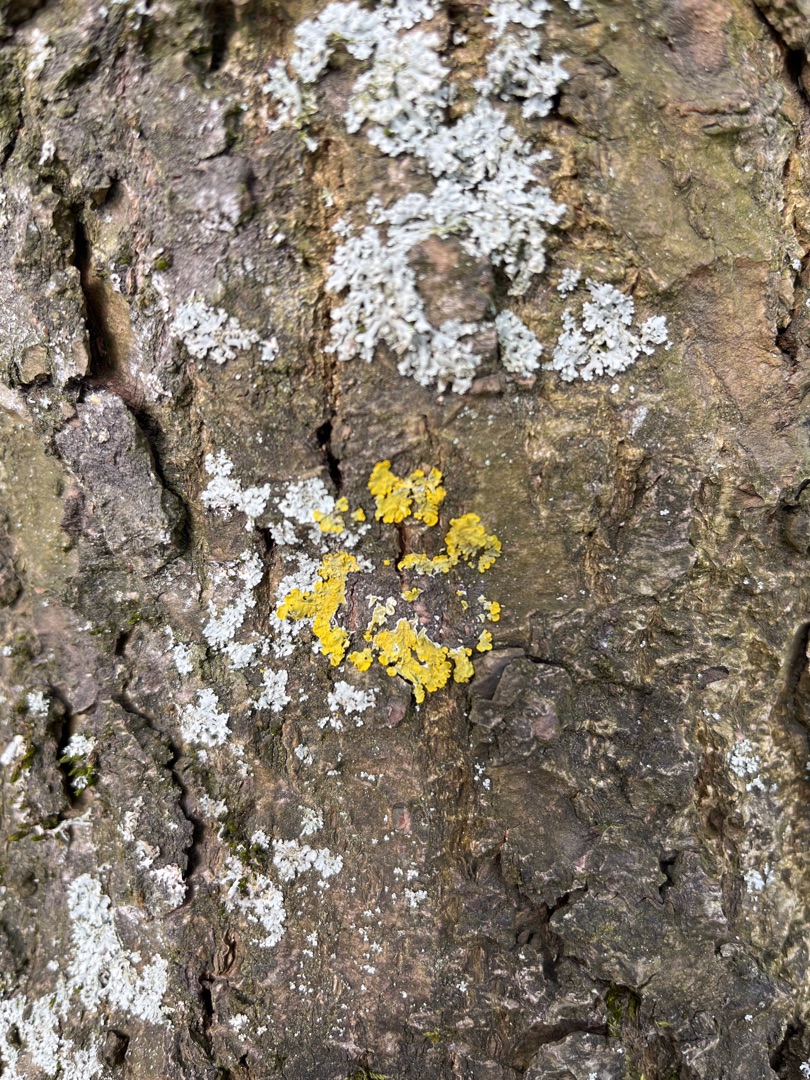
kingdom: Fungi
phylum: Ascomycota
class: Lecanoromycetes
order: Teloschistales
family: Teloschistaceae
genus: Xanthoria
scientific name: Xanthoria parietina
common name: Almindelig væggelav
